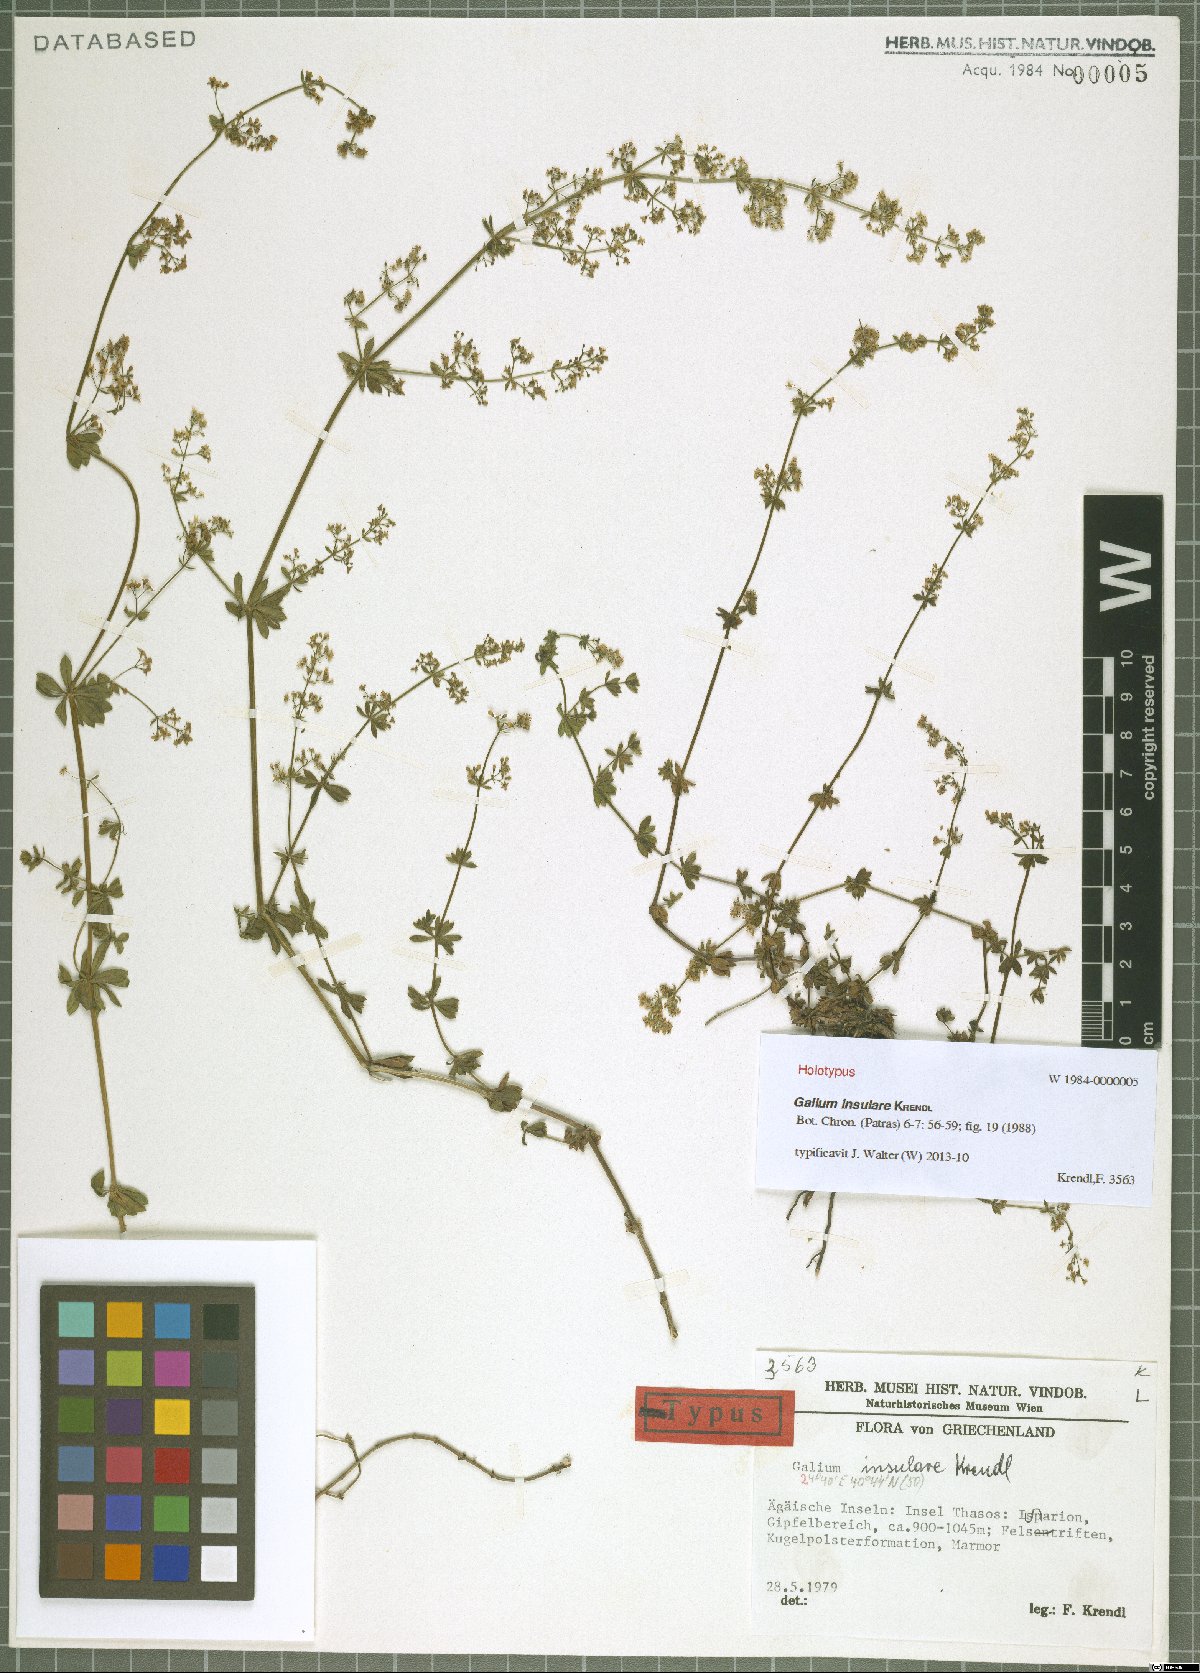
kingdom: Plantae
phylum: Tracheophyta
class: Magnoliopsida
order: Gentianales
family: Rubiaceae
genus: Galium
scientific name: Galium insulare
